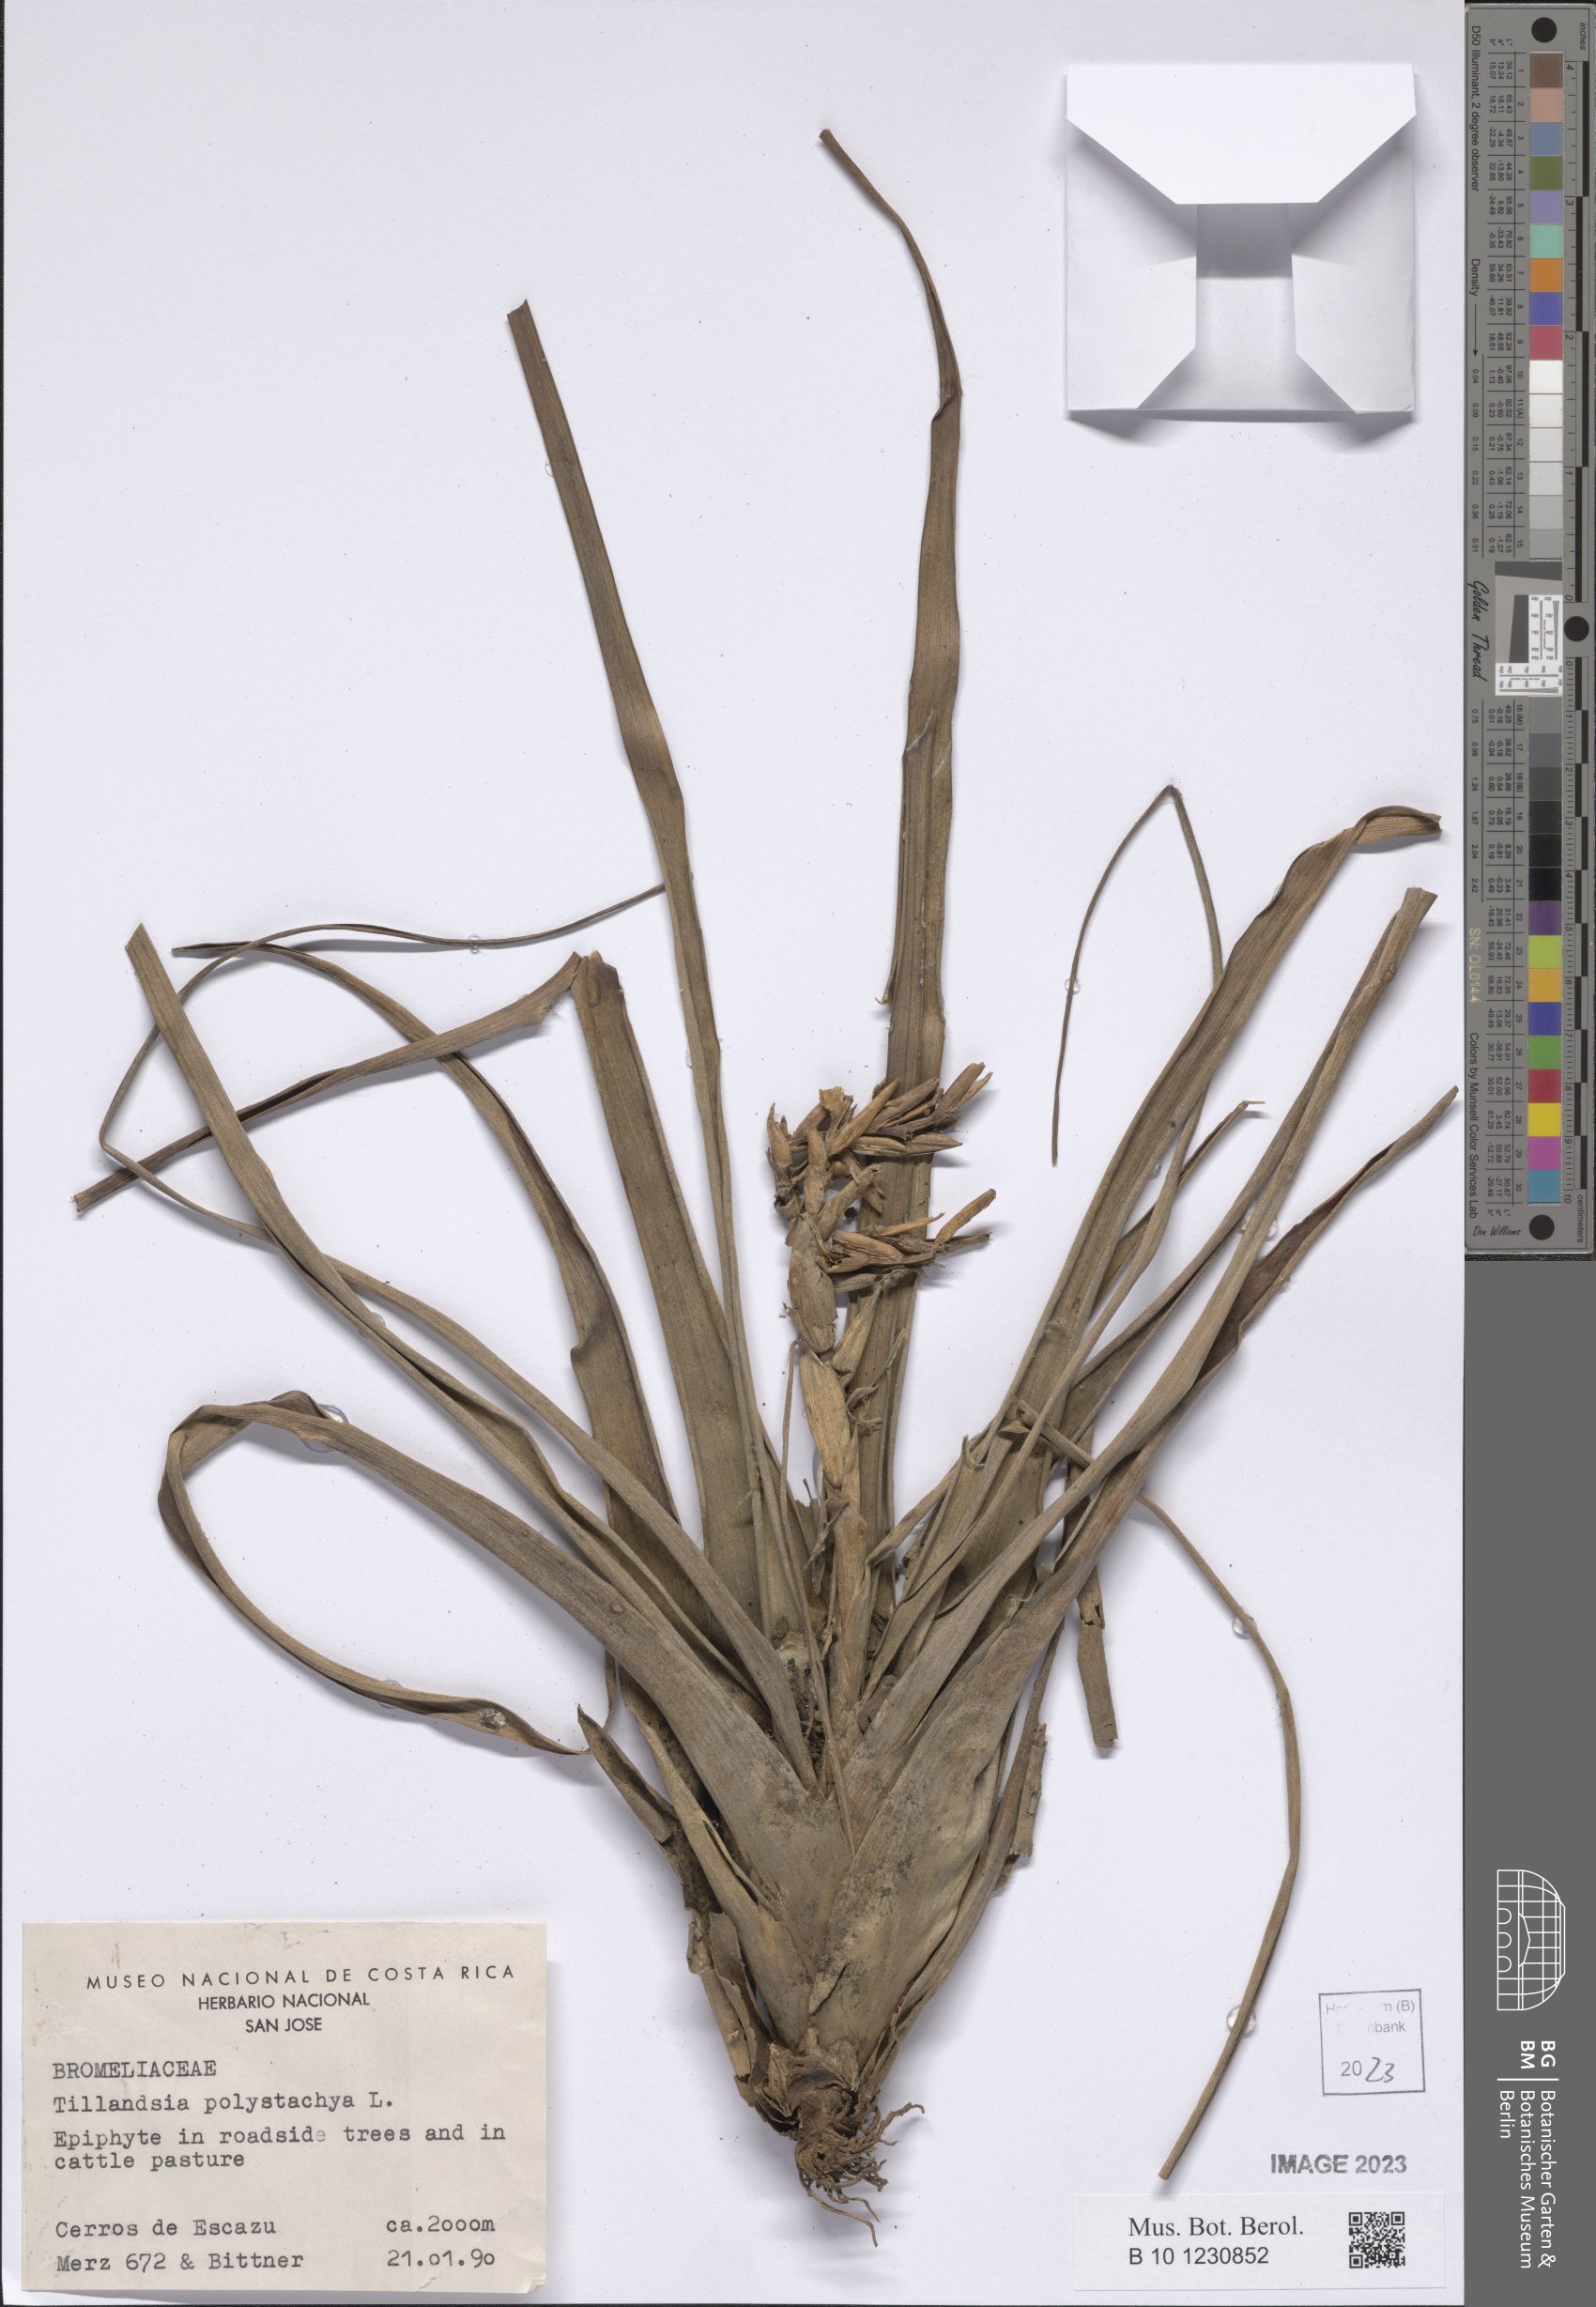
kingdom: Plantae
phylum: Tracheophyta
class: Liliopsida
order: Poales
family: Bromeliaceae
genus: Tillandsia
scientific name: Tillandsia polystachia
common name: Airplant
